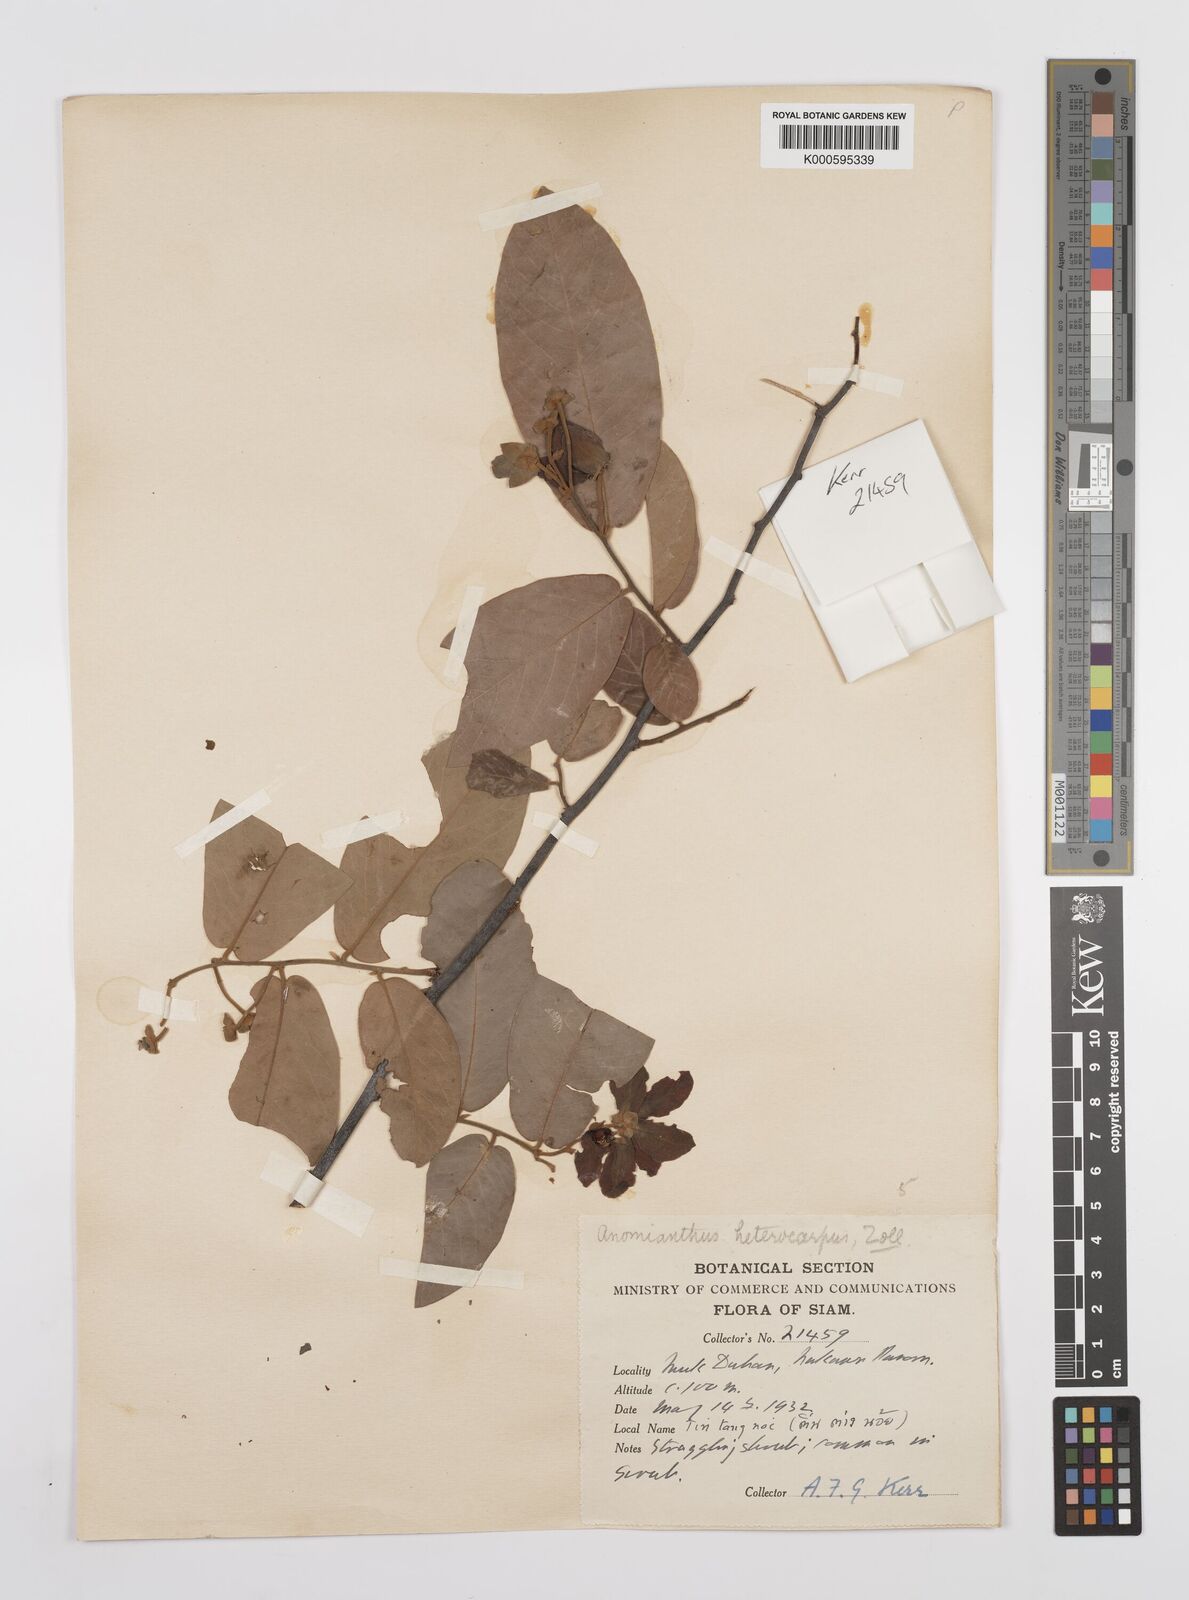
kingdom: Plantae
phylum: Tracheophyta
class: Magnoliopsida
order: Magnoliales
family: Annonaceae
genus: Anomianthus
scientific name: Anomianthus heterocarpus
